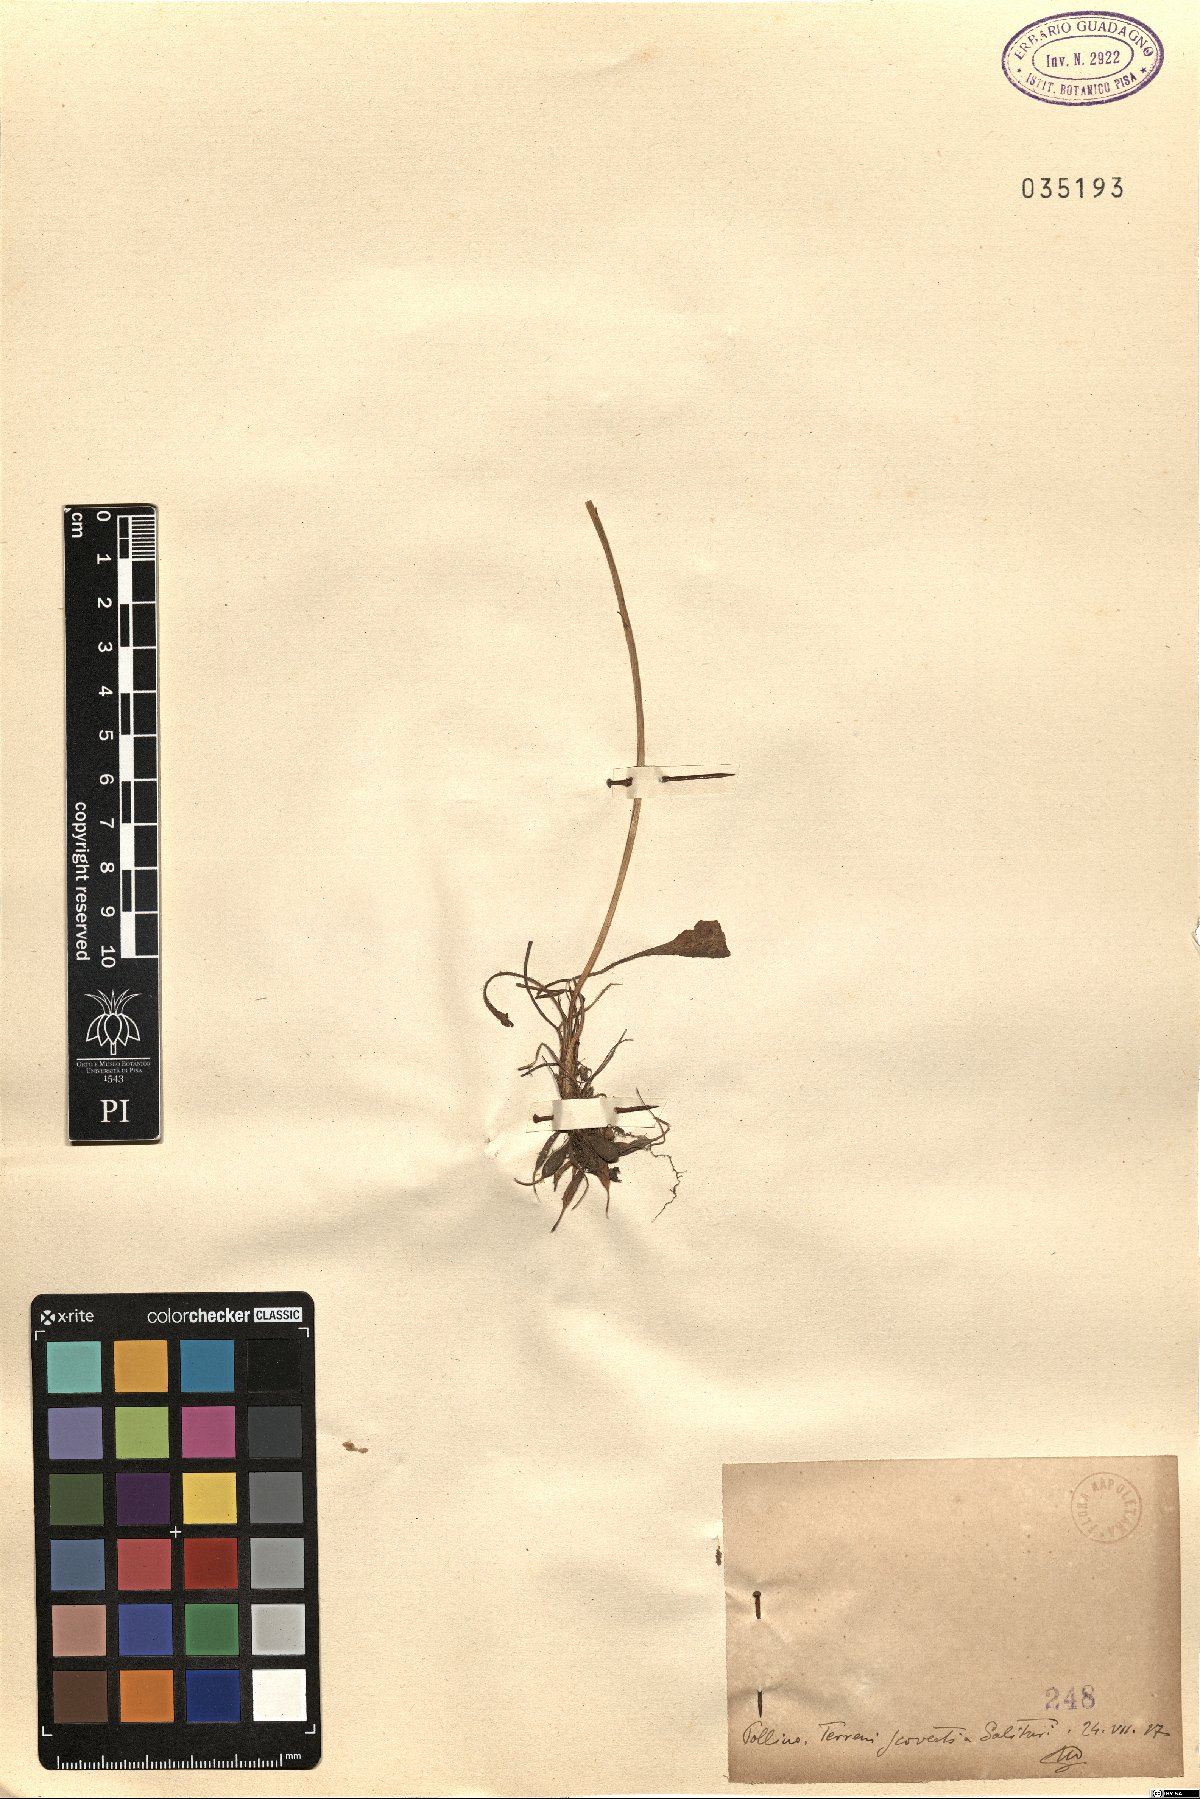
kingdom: Plantae
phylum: Tracheophyta
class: Magnoliopsida
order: Asterales
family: Asteraceae
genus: Thrincia
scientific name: Thrincia
